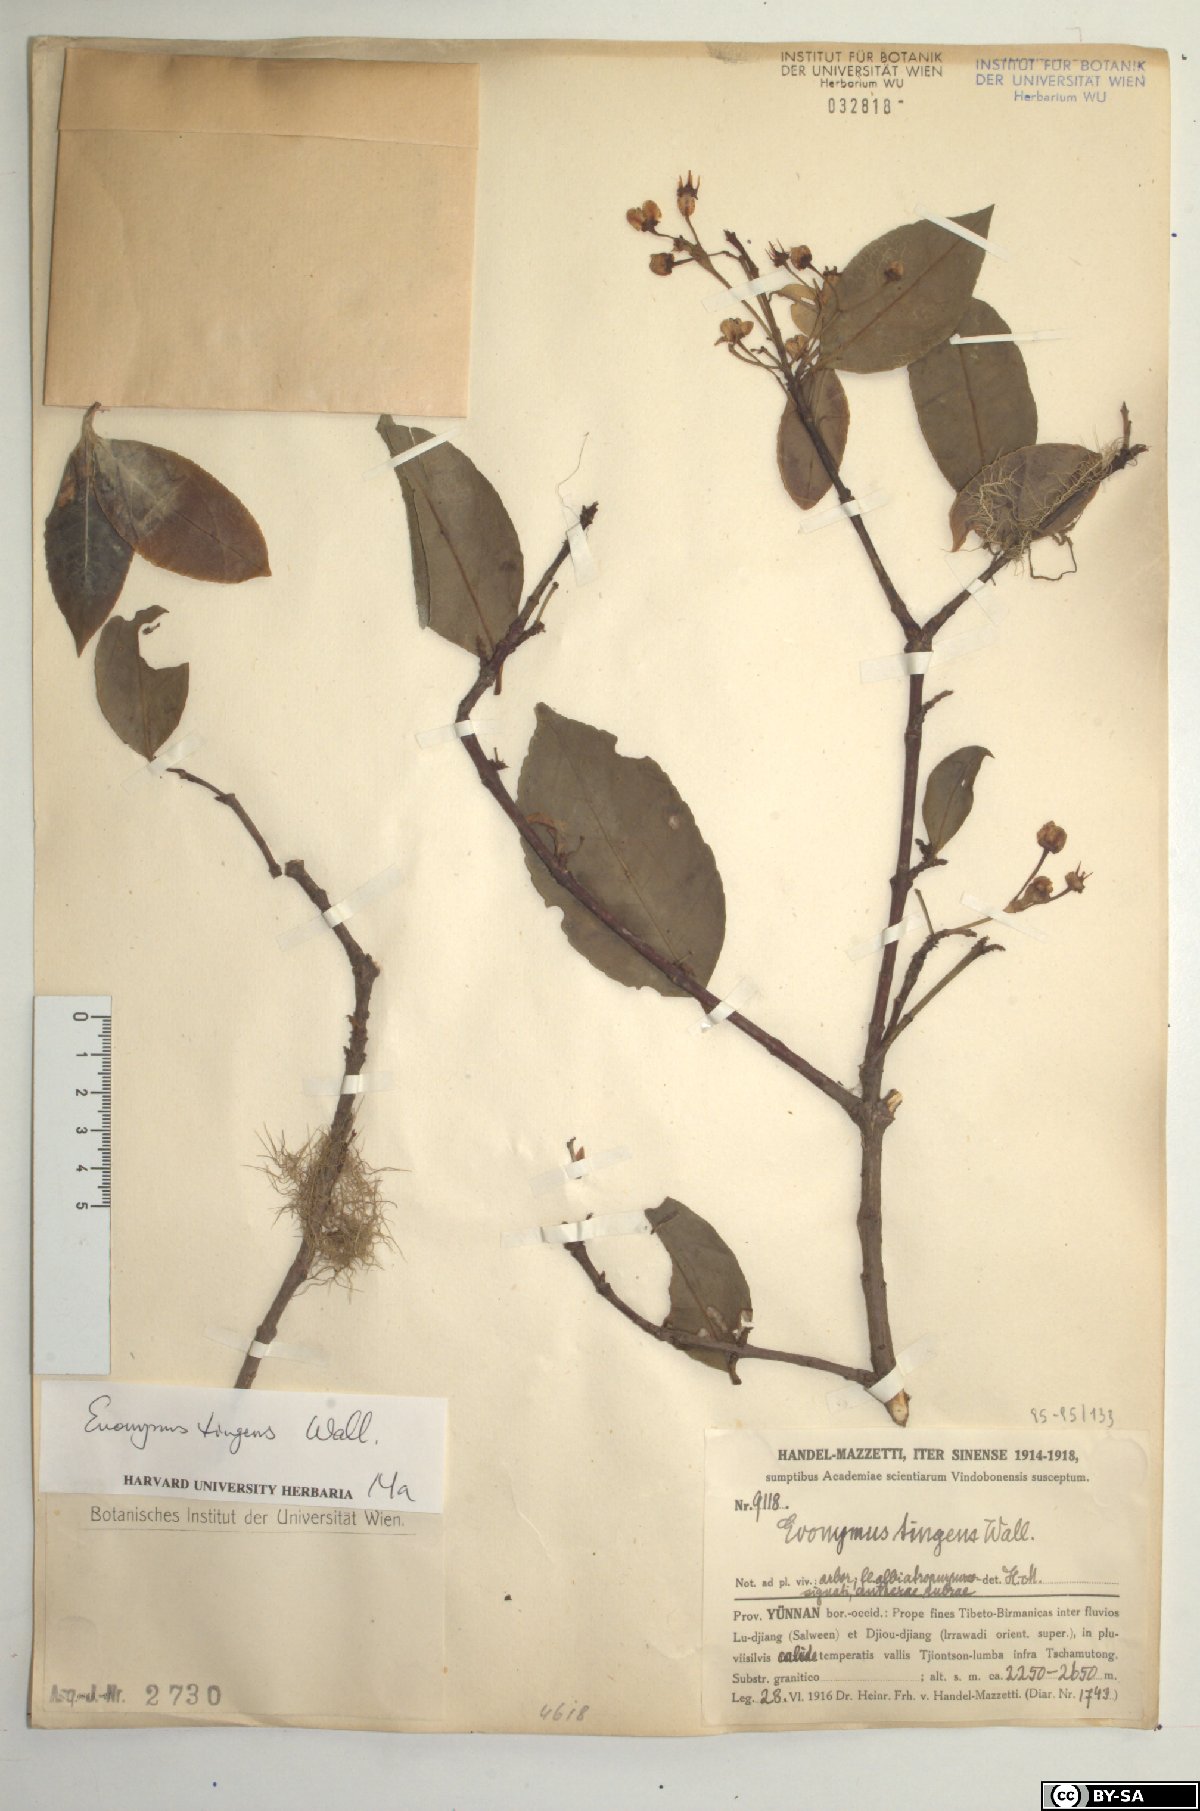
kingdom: Plantae
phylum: Tracheophyta
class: Magnoliopsida
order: Celastrales
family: Celastraceae
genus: Euonymus
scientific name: Euonymus tingens
